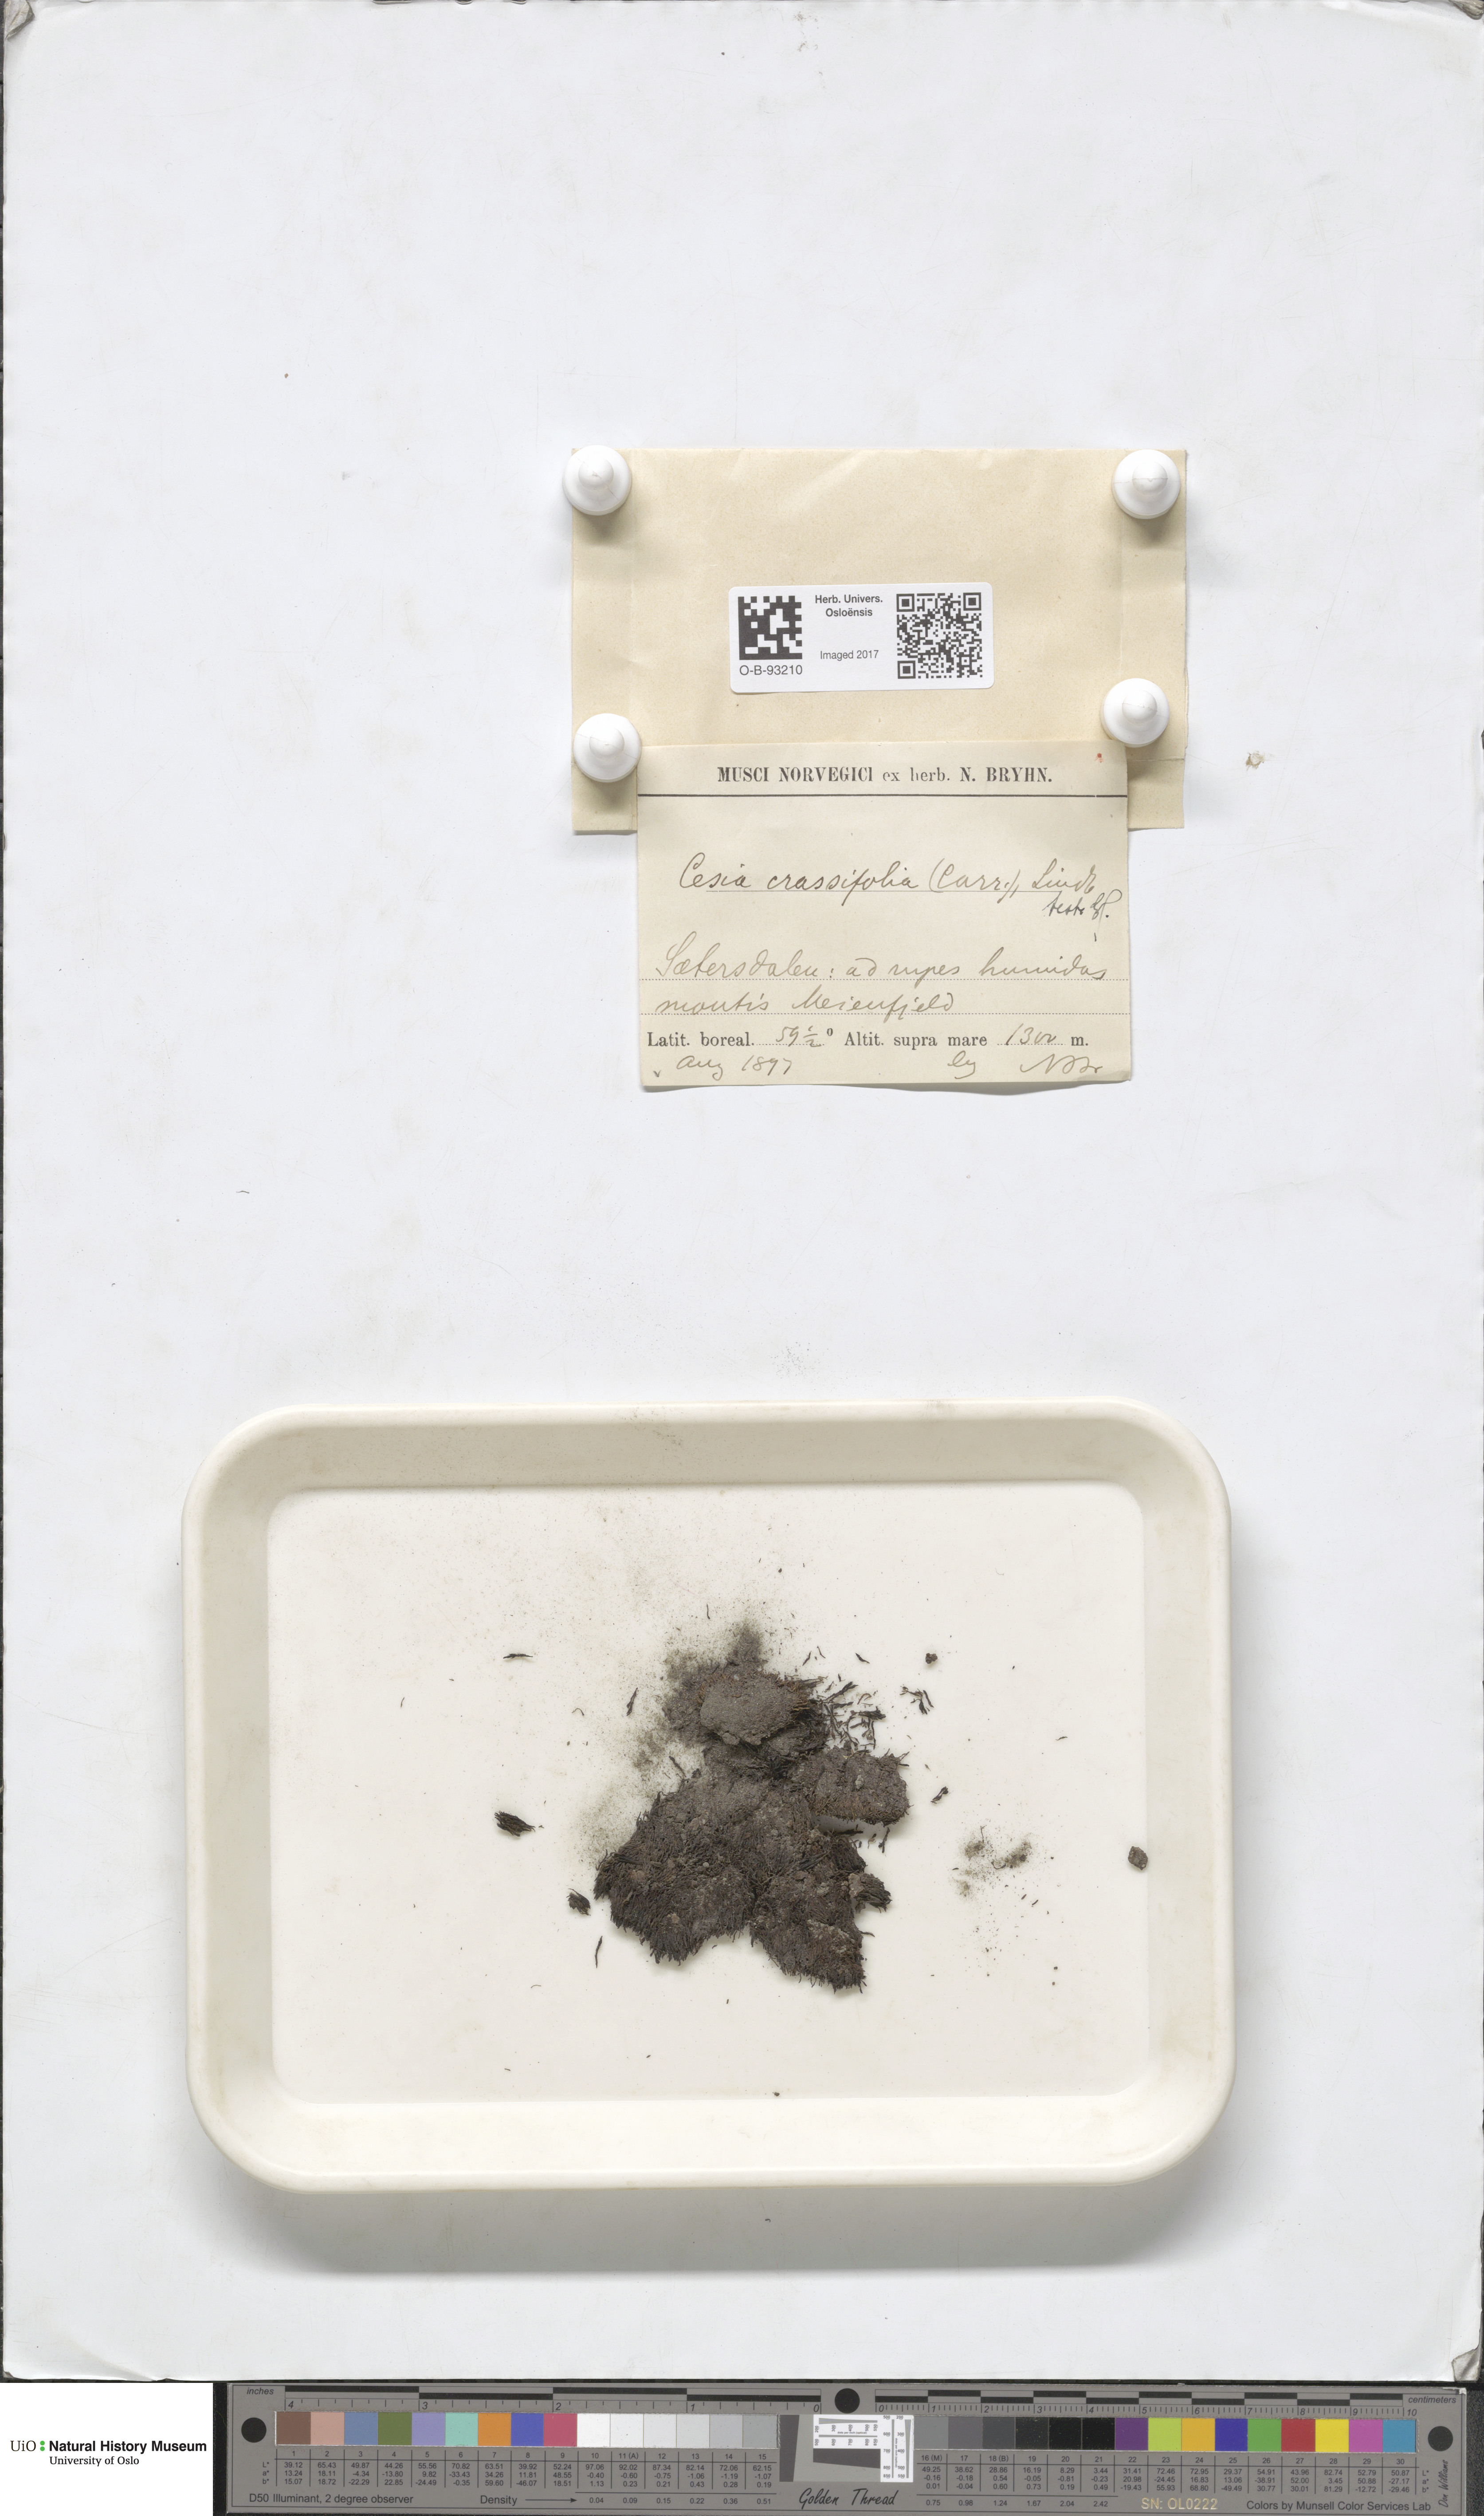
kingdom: Plantae
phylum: Marchantiophyta
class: Jungermanniopsida
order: Jungermanniales
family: Gymnomitriaceae
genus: Gymnomitrion
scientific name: Gymnomitrion brevissimum
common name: Snow rustwort
